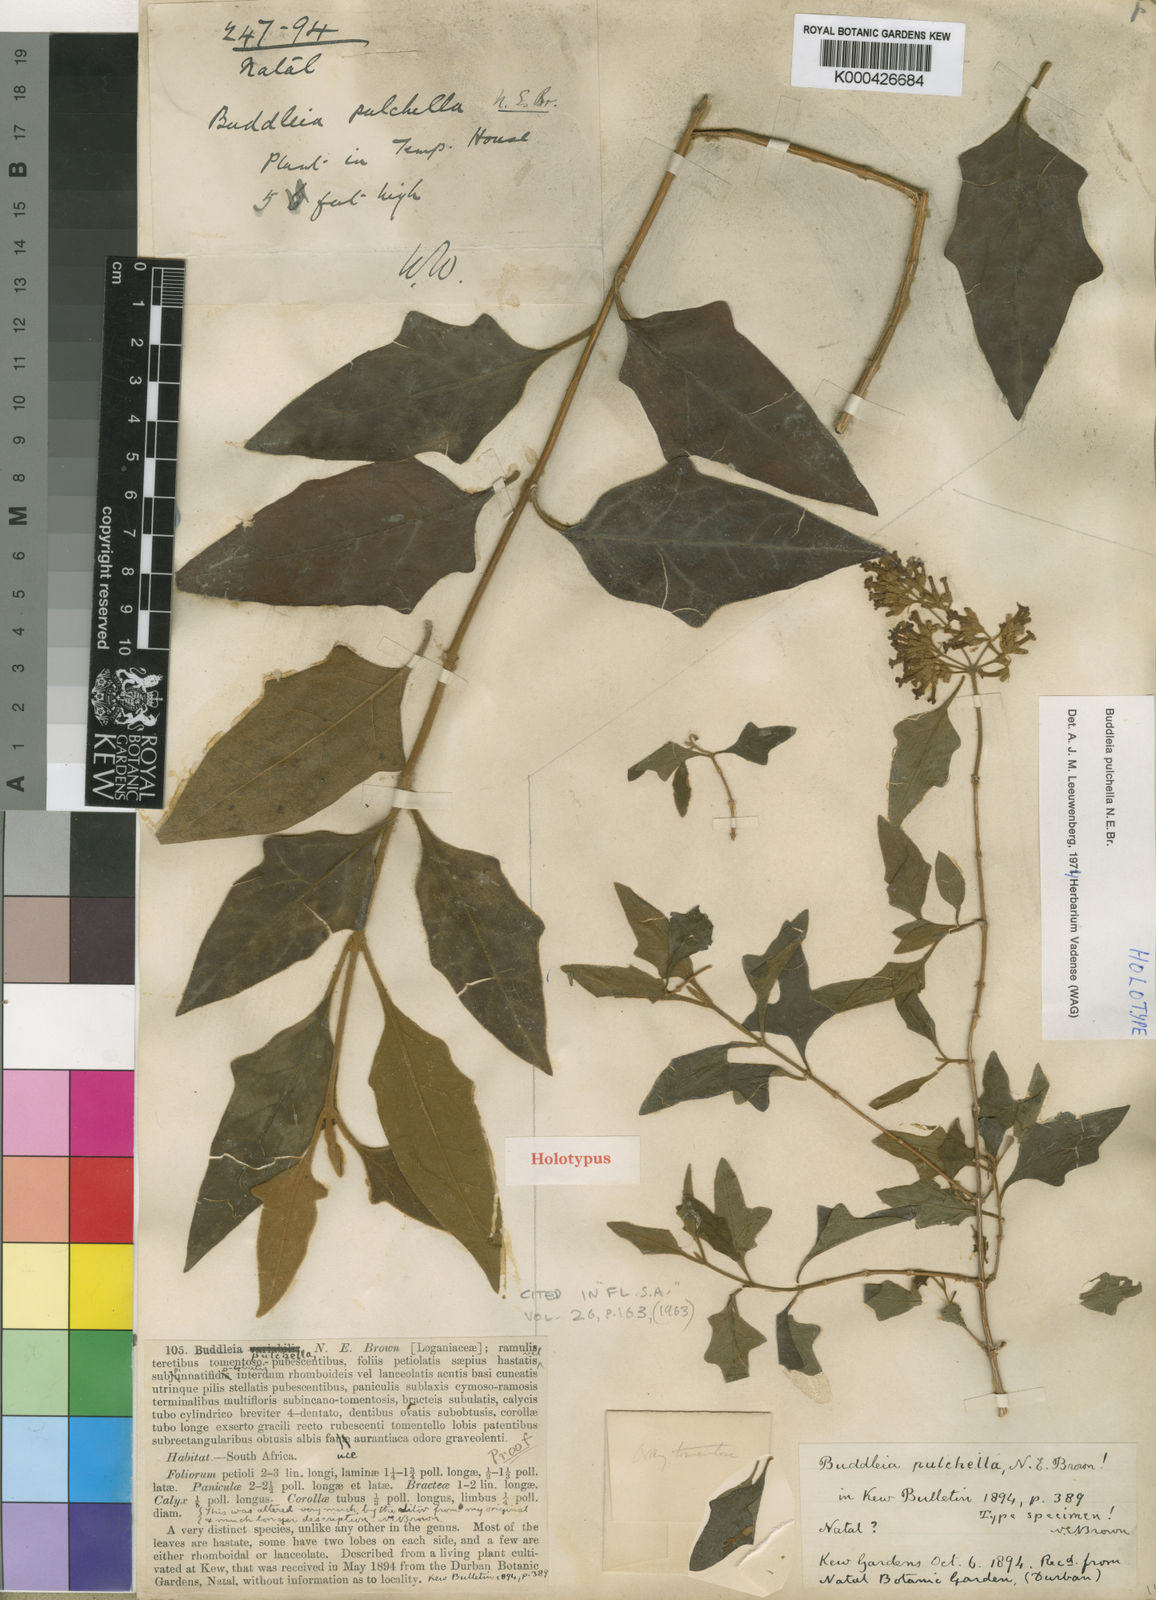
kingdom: Plantae
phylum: Tracheophyta
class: Magnoliopsida
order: Lamiales
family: Scrophulariaceae
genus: Buddleja
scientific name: Buddleja pulchella
